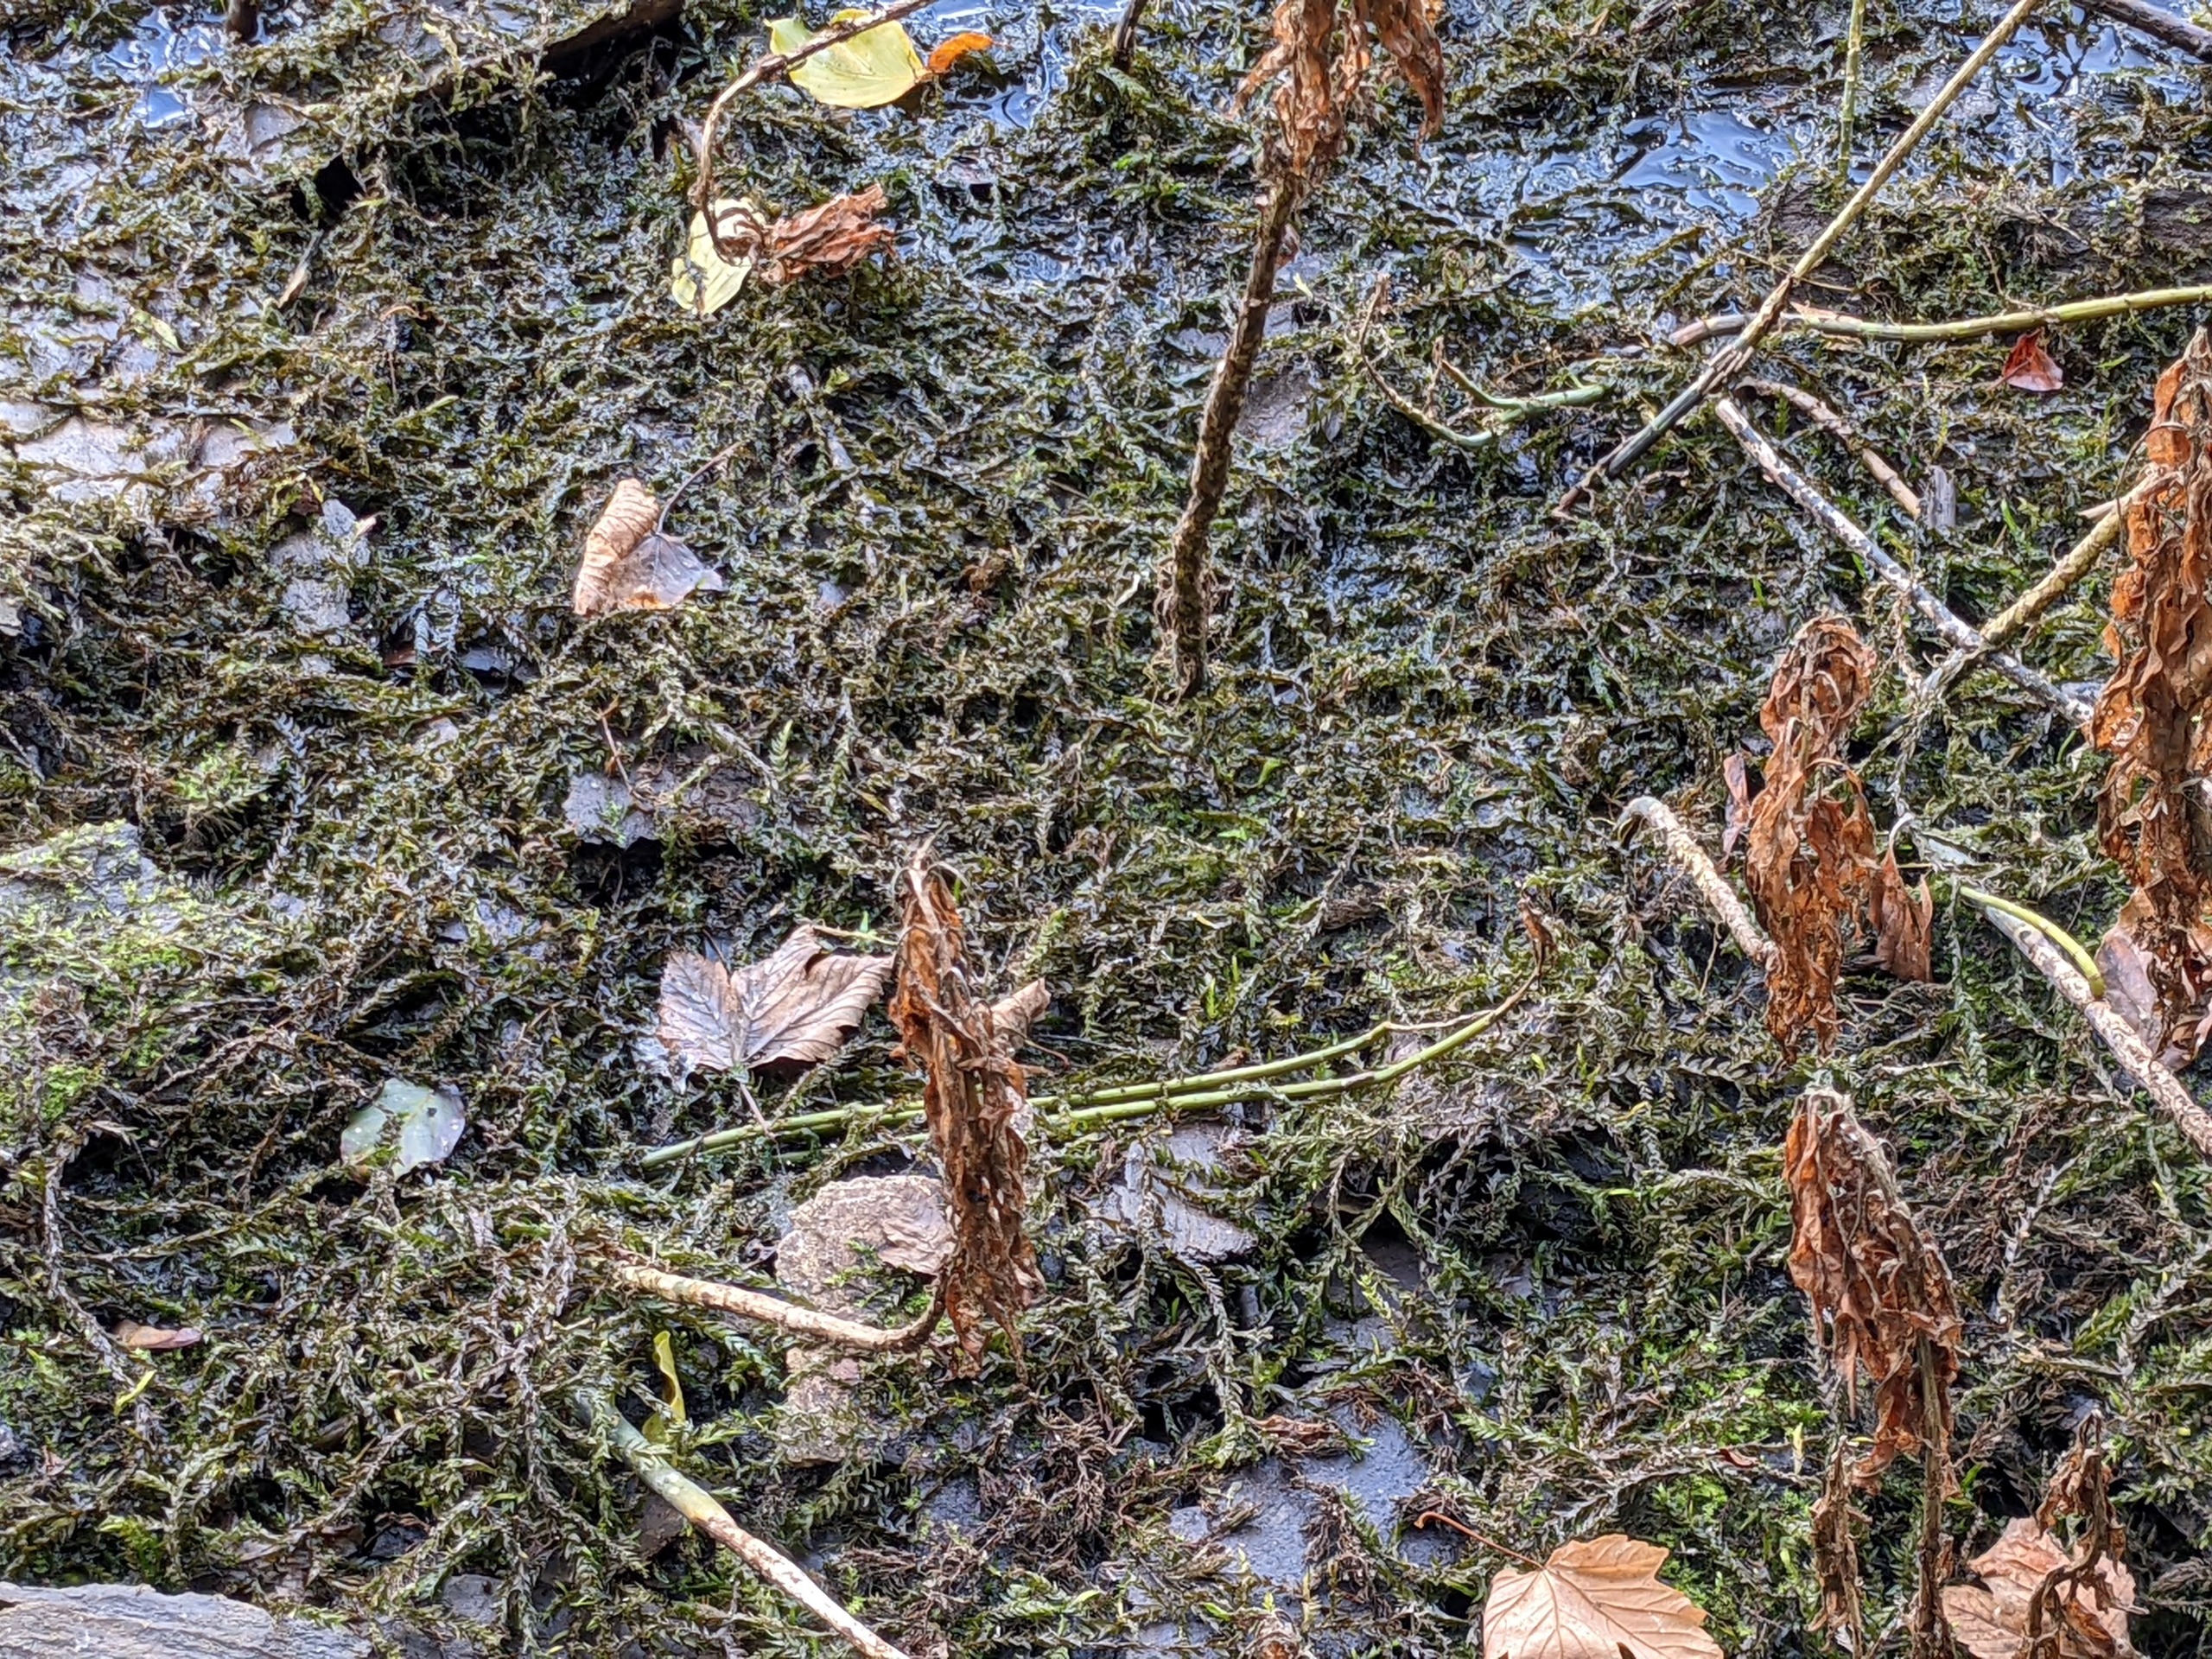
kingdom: Plantae
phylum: Bryophyta
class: Bryopsida
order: Hypnales
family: Fontinalaceae
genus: Fontinalis
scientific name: Fontinalis antipyretica
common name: Stor kildemos
